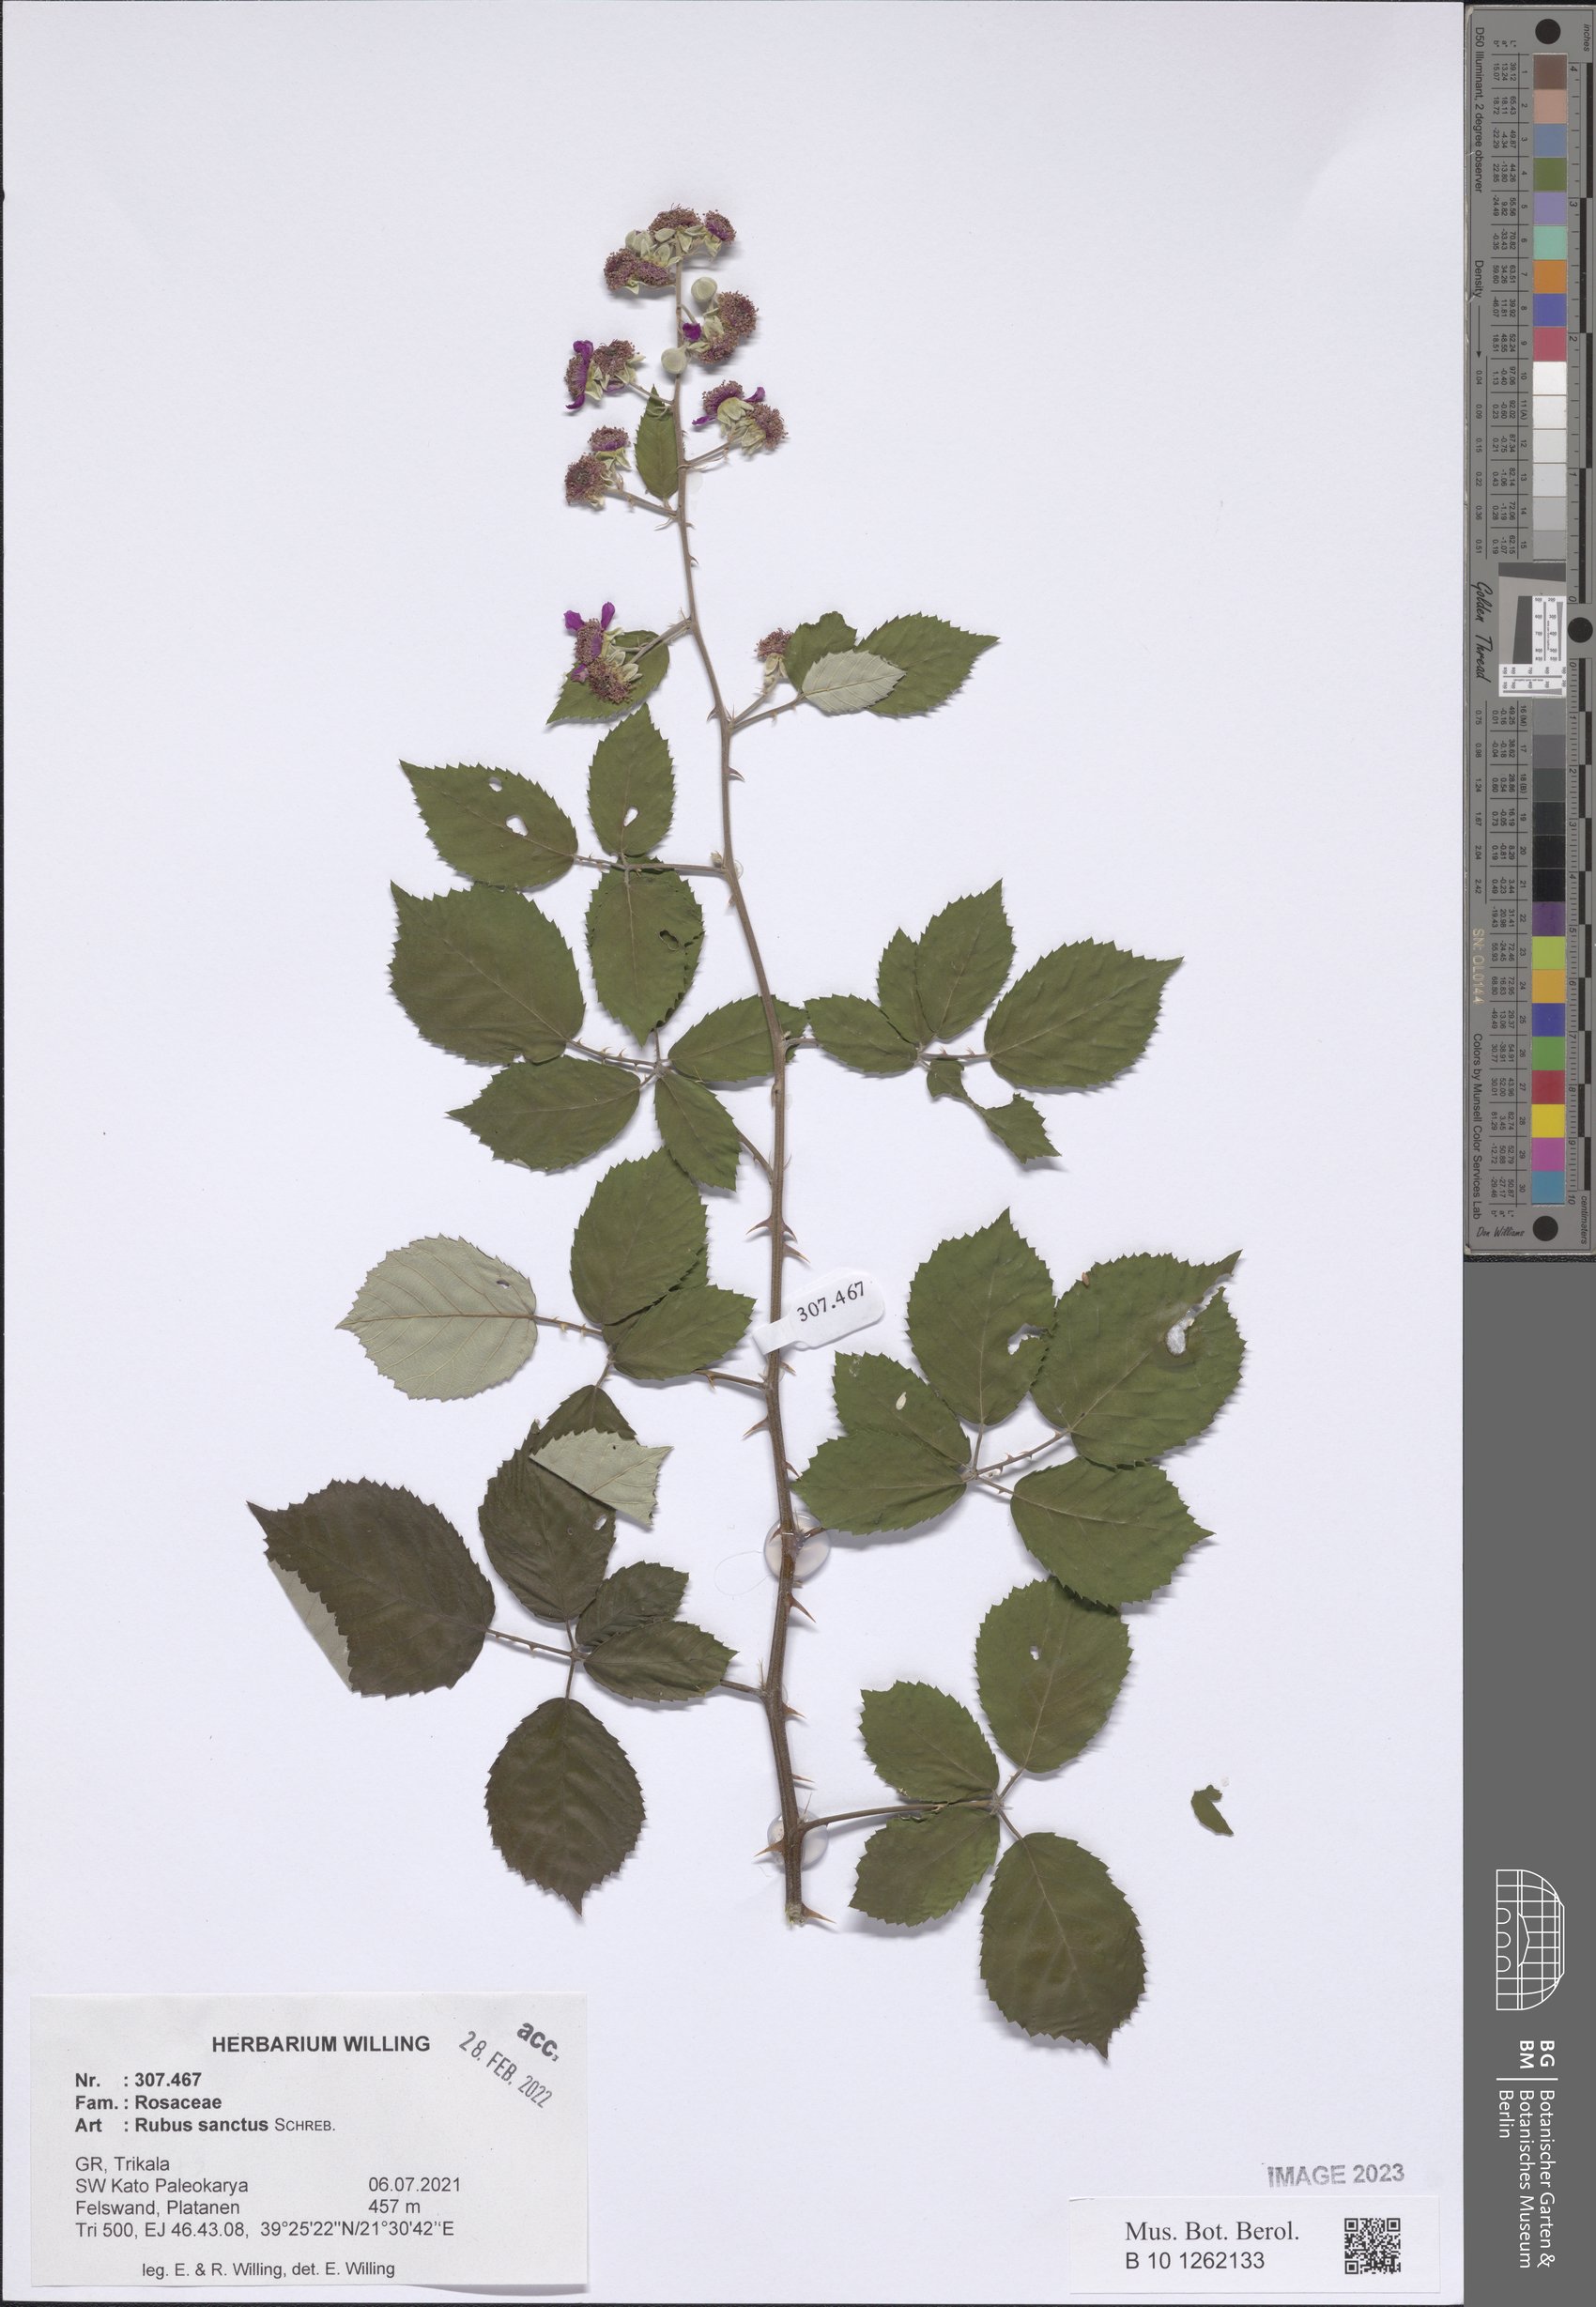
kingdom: Plantae
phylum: Tracheophyta
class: Magnoliopsida
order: Rosales
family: Rosaceae
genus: Rubus
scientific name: Rubus sanctus
